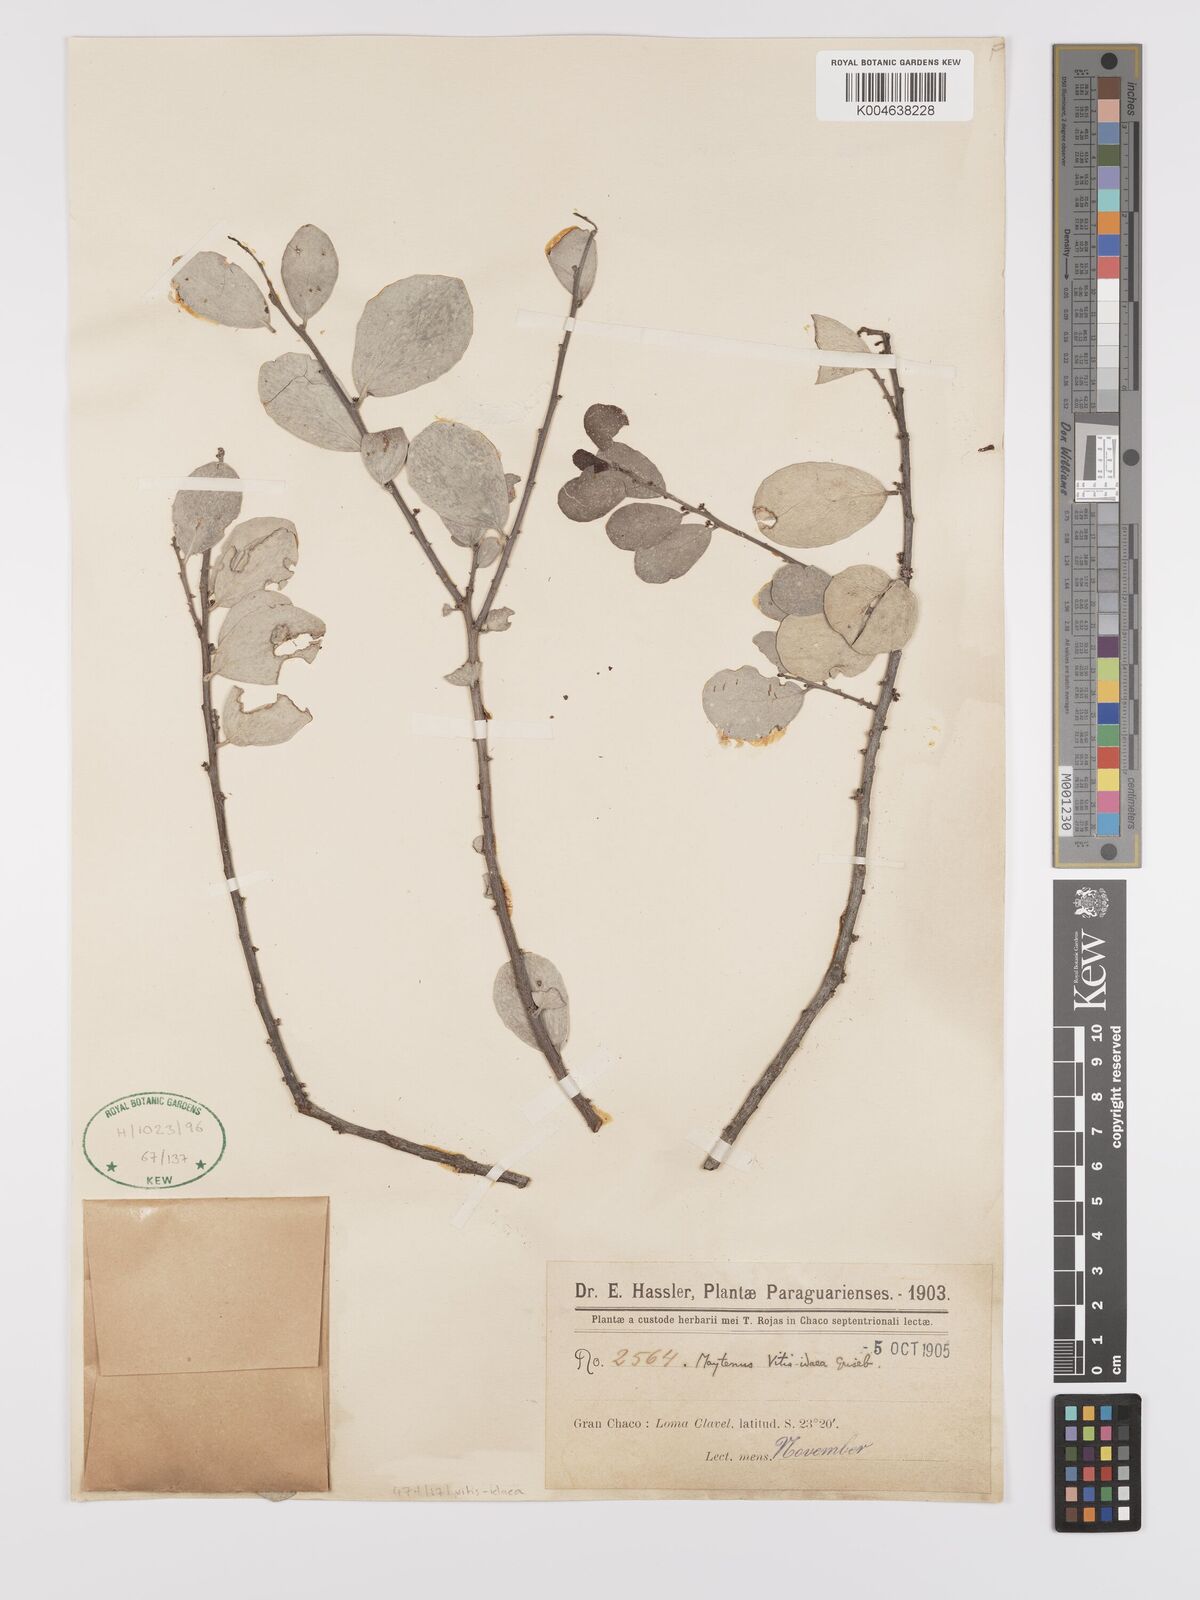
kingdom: Plantae
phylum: Tracheophyta
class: Magnoliopsida
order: Celastrales
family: Celastraceae
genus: Tricerma
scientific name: Tricerma vitis-idaeum
